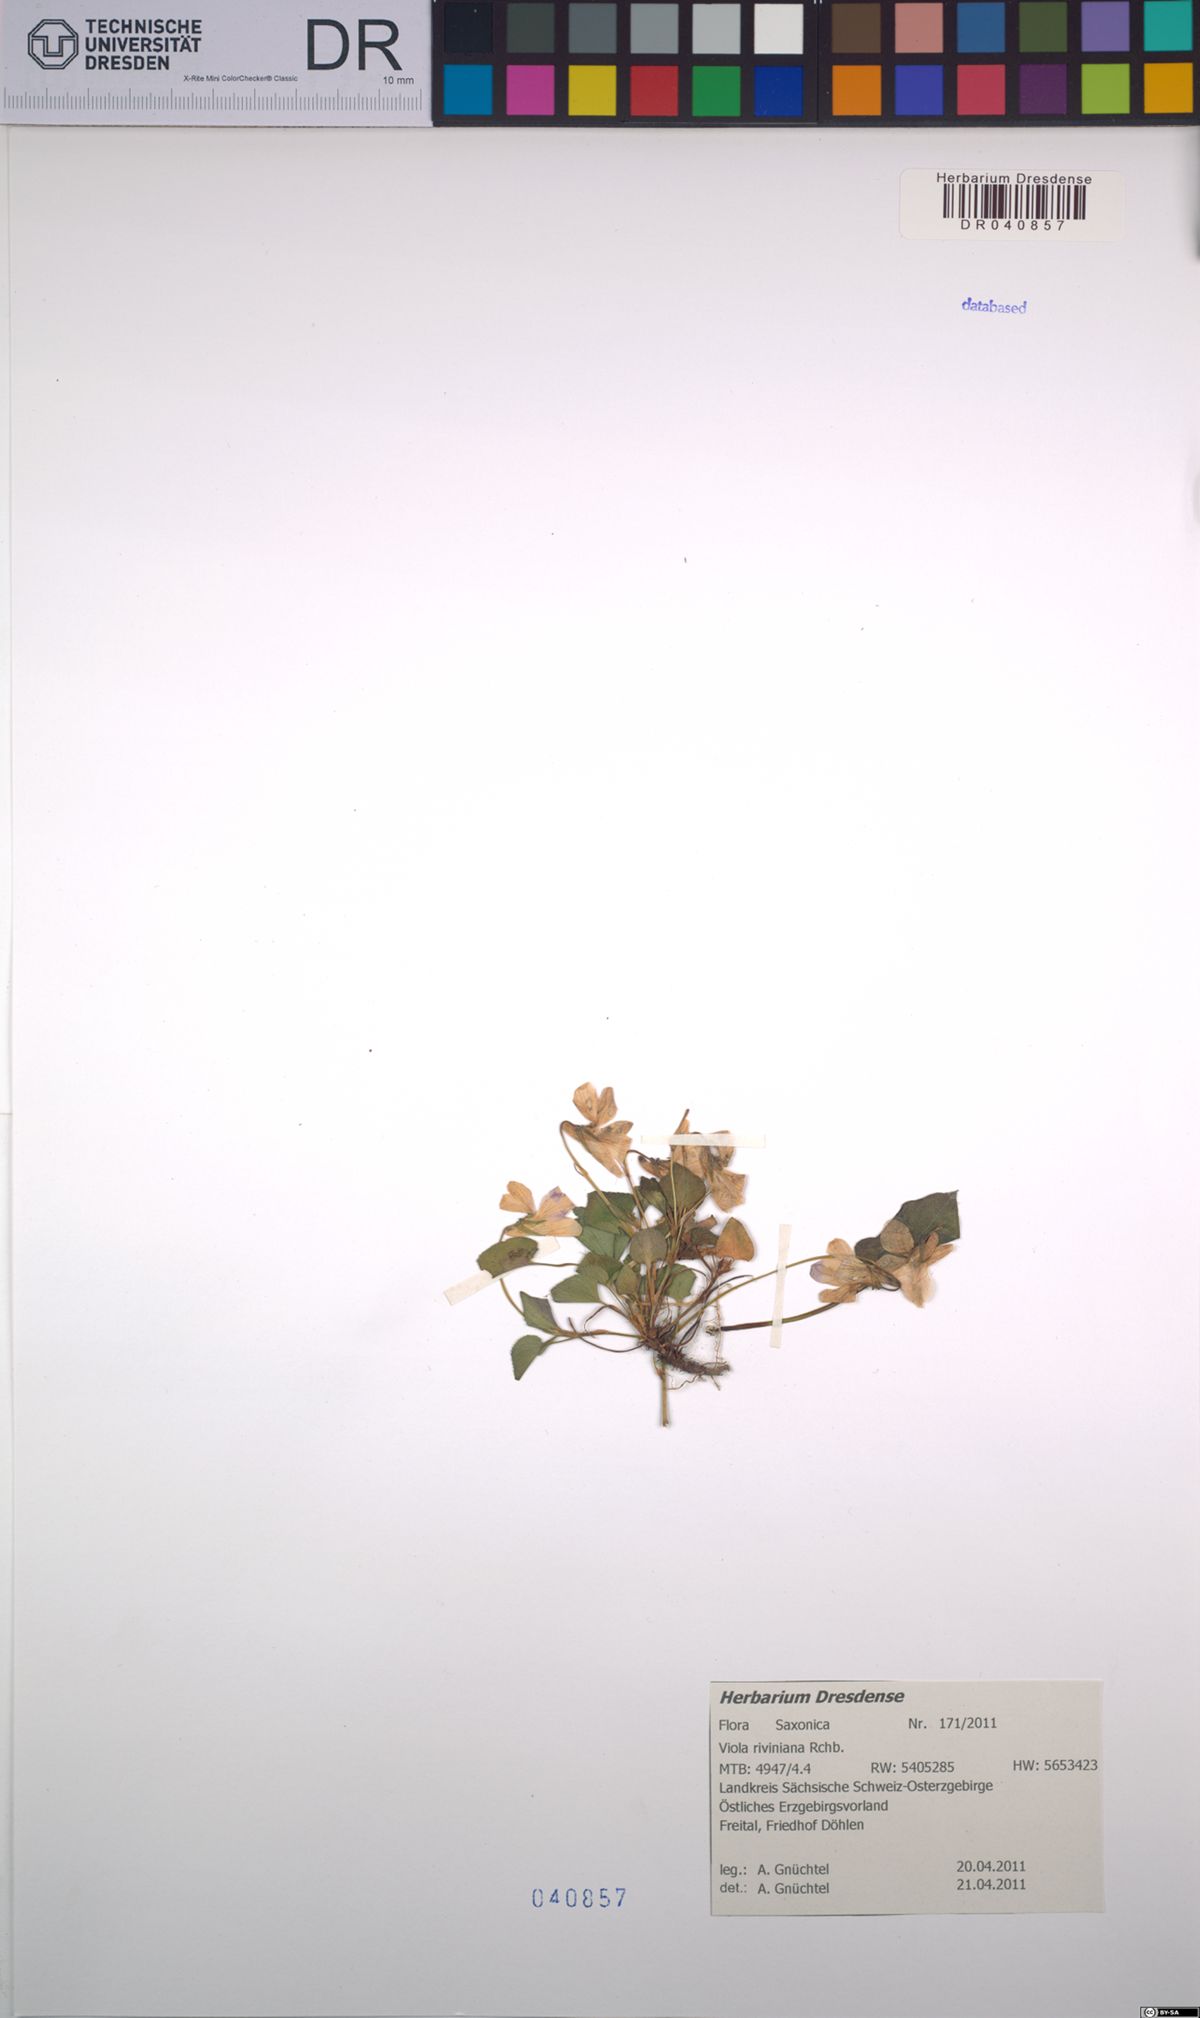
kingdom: Plantae
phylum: Tracheophyta
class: Magnoliopsida
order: Malpighiales
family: Violaceae
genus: Viola
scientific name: Viola riviniana
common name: Common dog-violet
